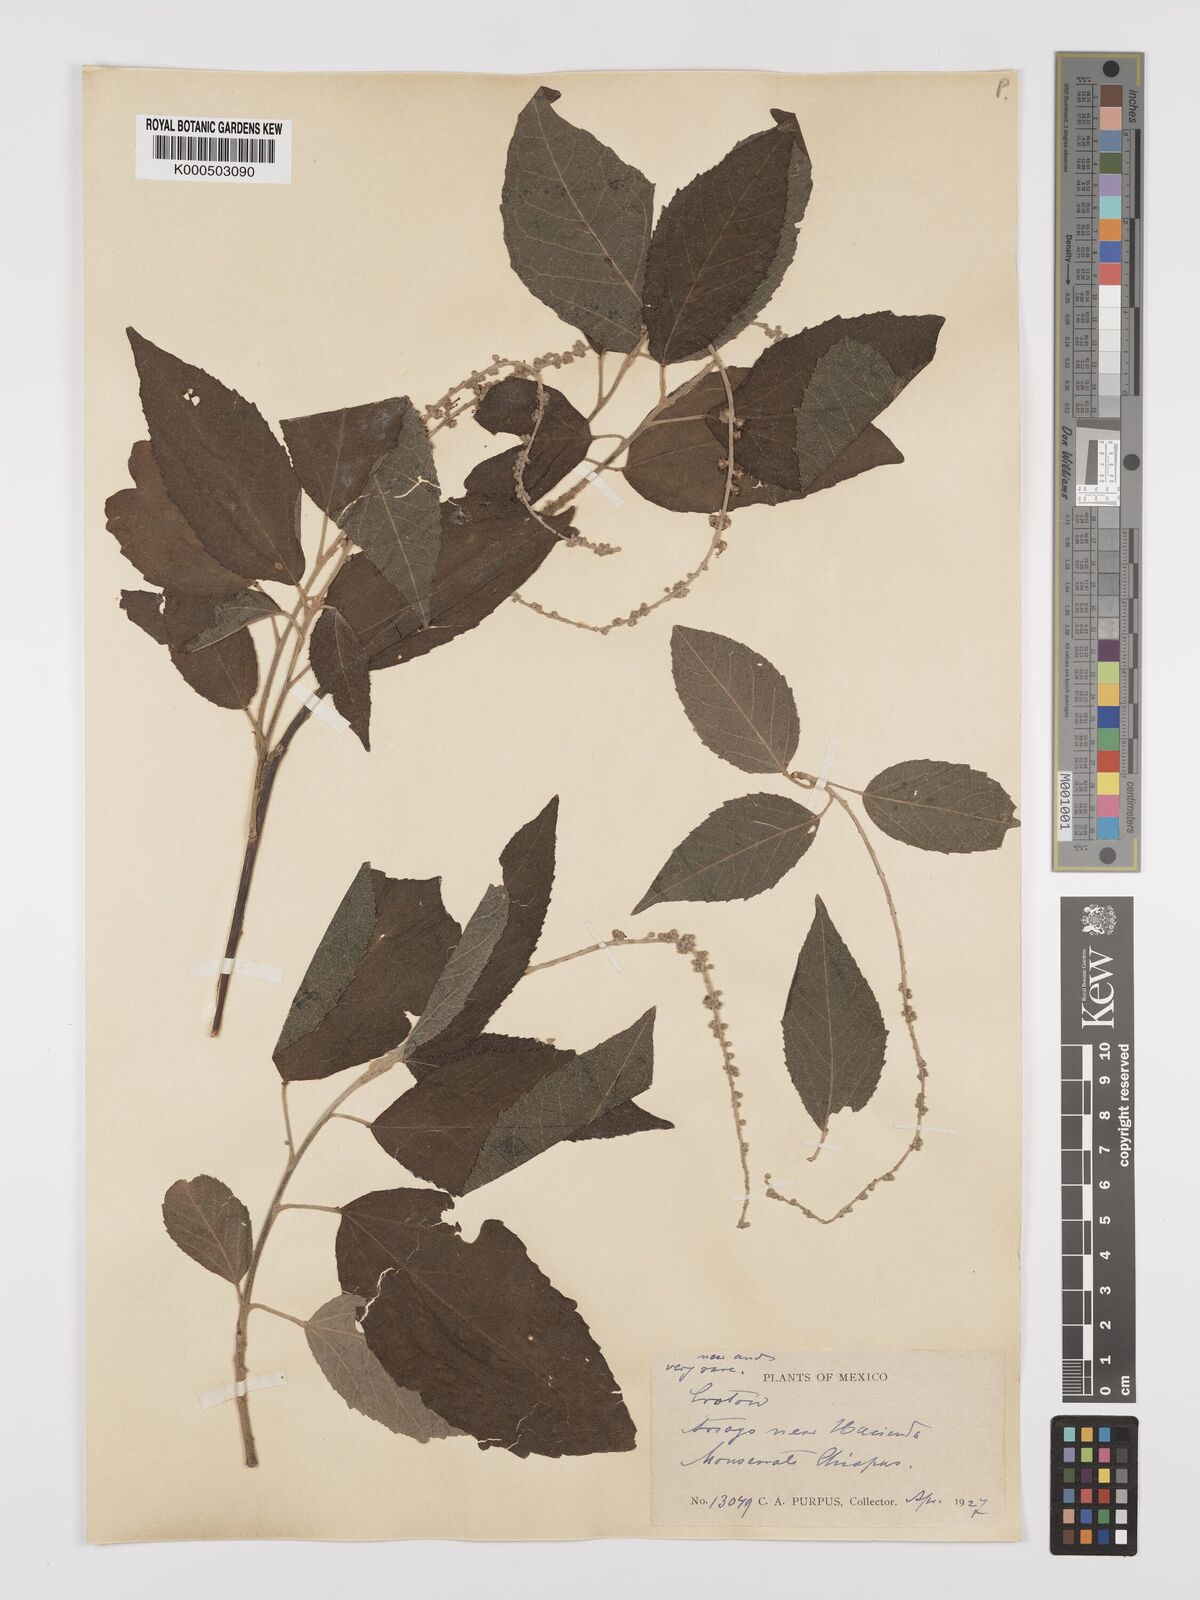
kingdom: Plantae
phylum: Tracheophyta
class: Magnoliopsida
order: Malpighiales
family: Euphorbiaceae
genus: Croton
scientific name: Croton
